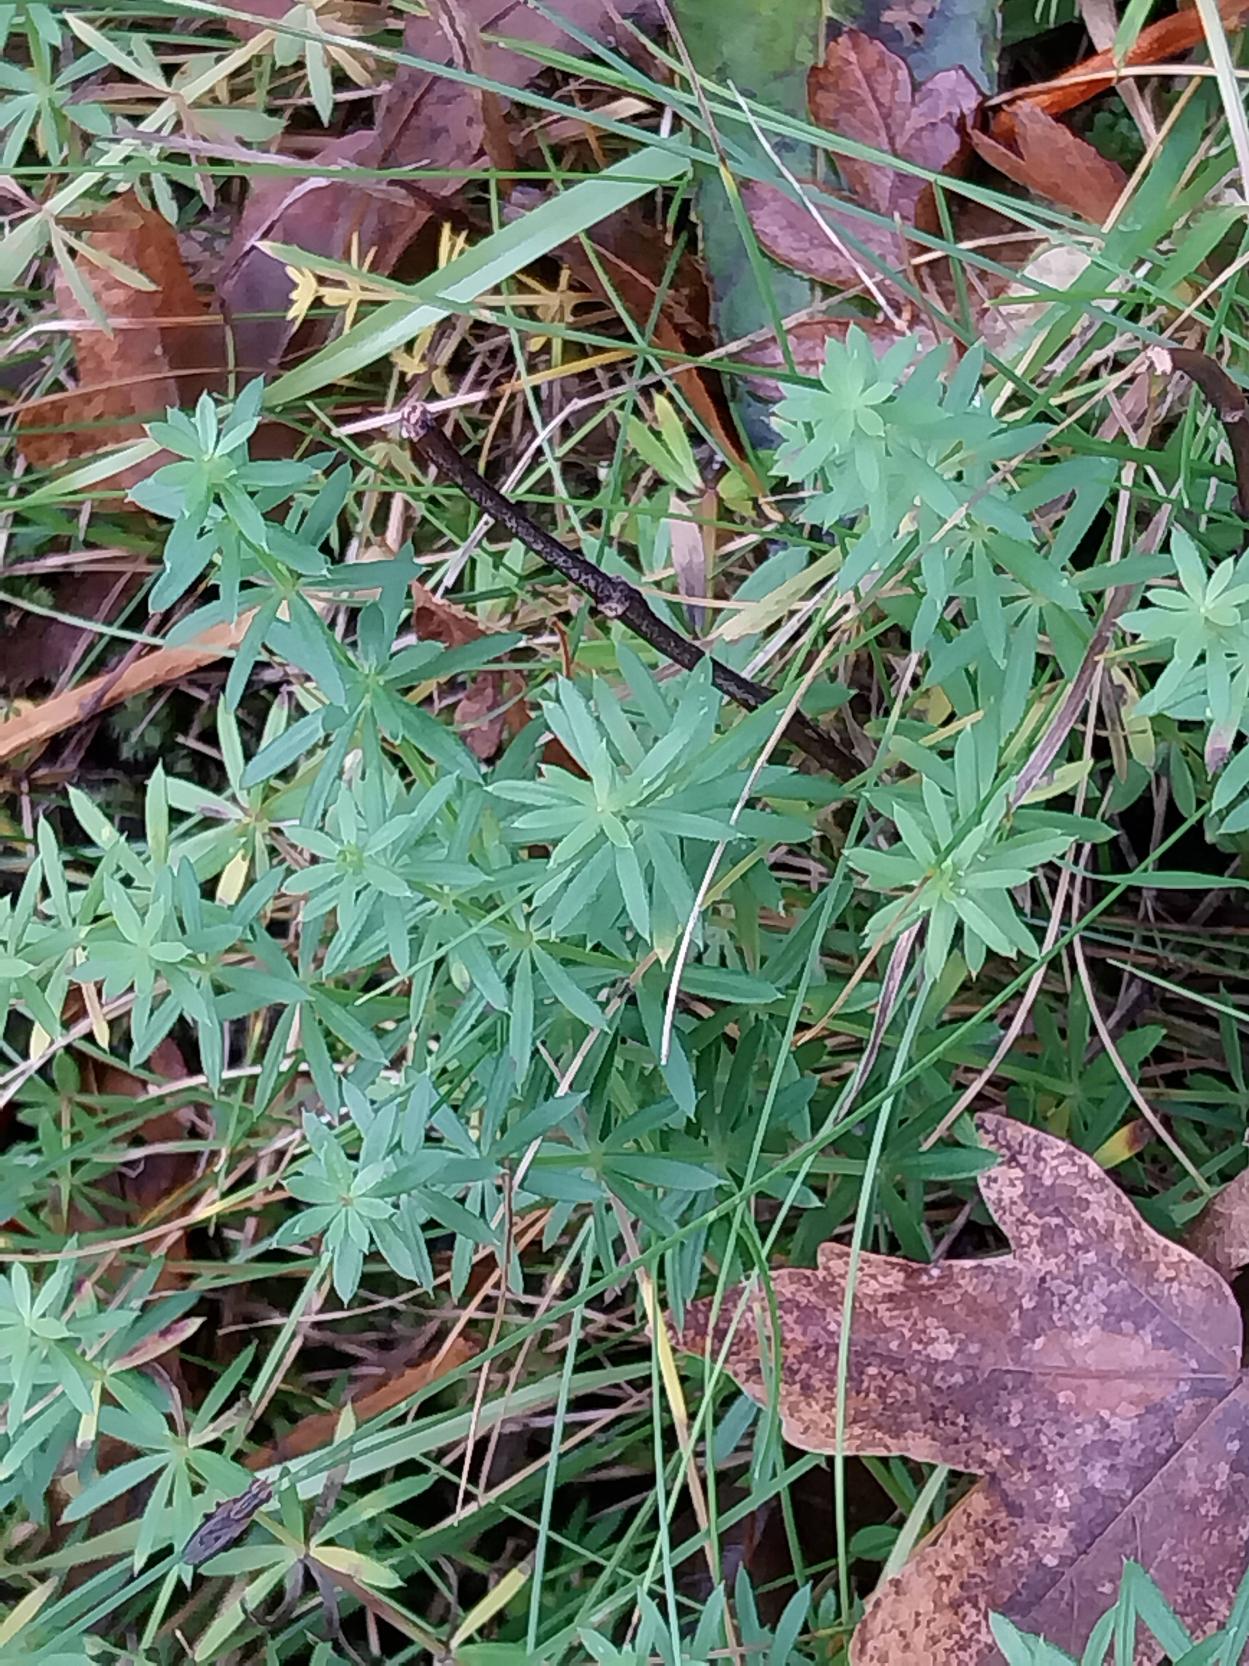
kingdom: Plantae
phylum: Tracheophyta
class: Magnoliopsida
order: Gentianales
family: Rubiaceae
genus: Galium
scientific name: Galium mollugo
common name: Hvid snerre
